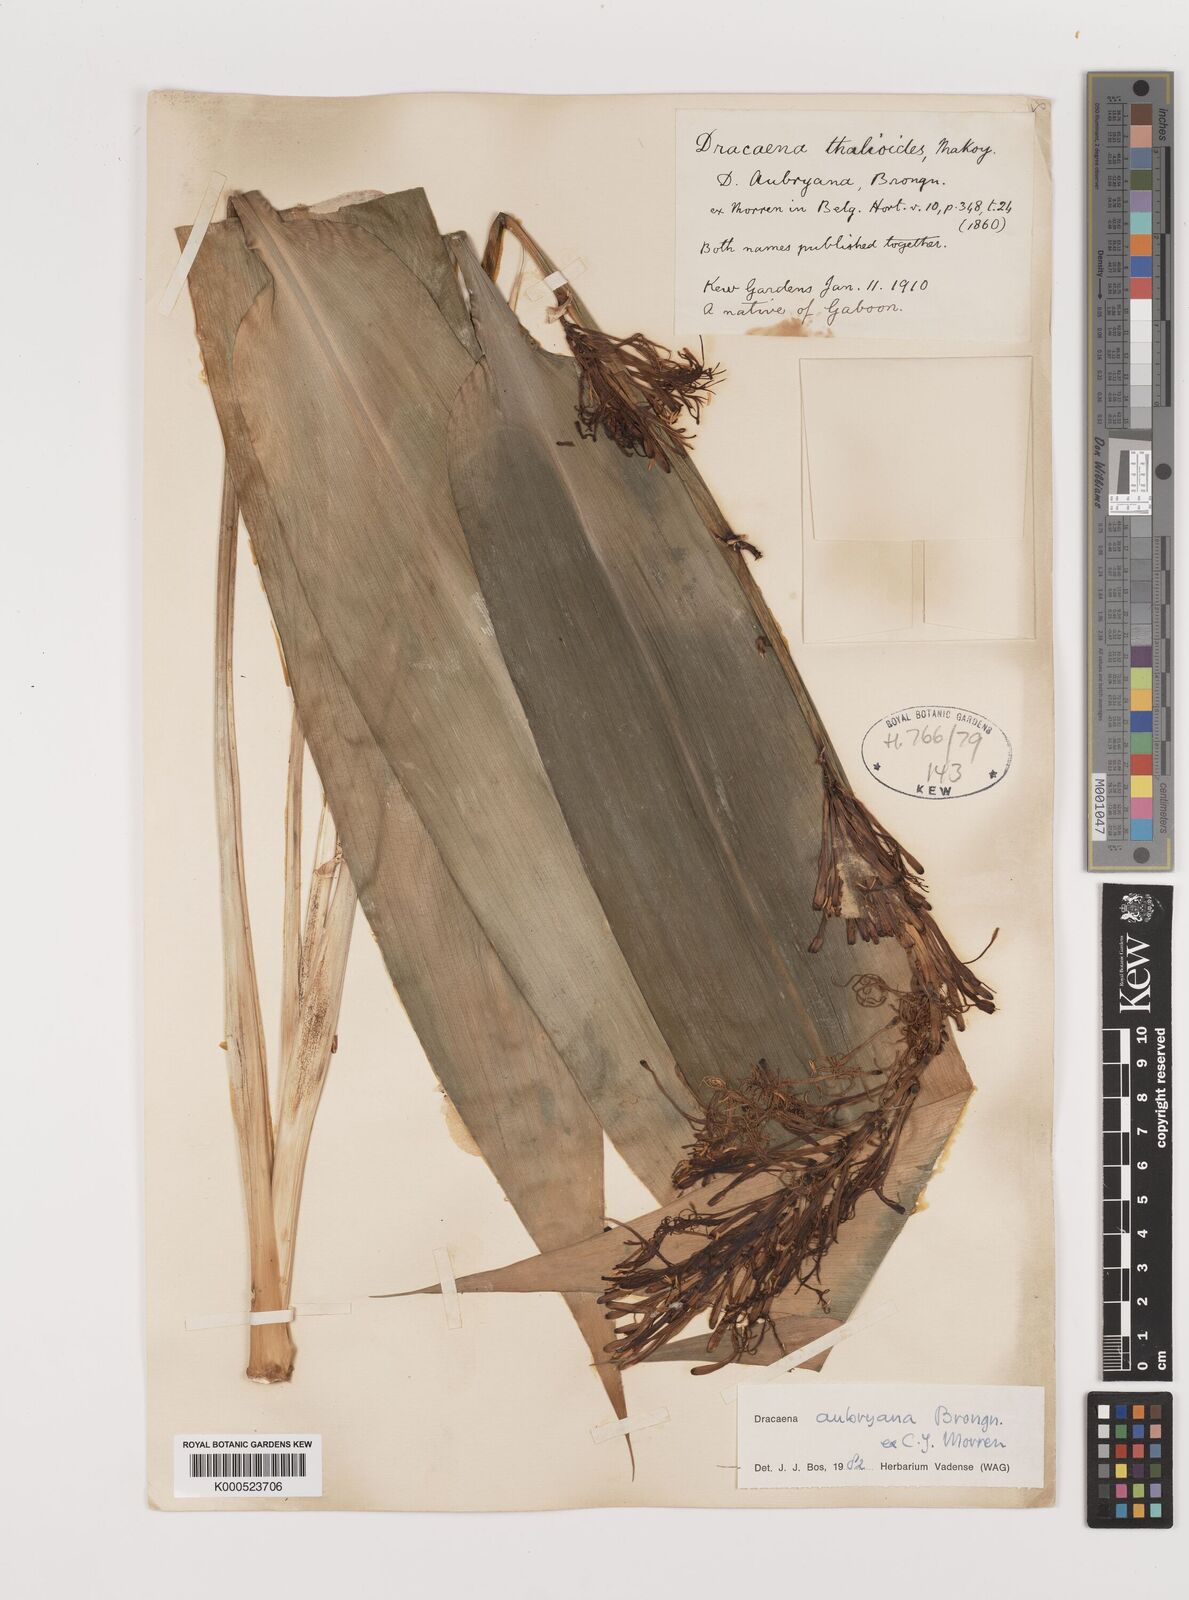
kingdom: Plantae
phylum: Tracheophyta
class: Liliopsida
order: Asparagales
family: Asparagaceae
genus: Dracaena
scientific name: Dracaena aubryana
